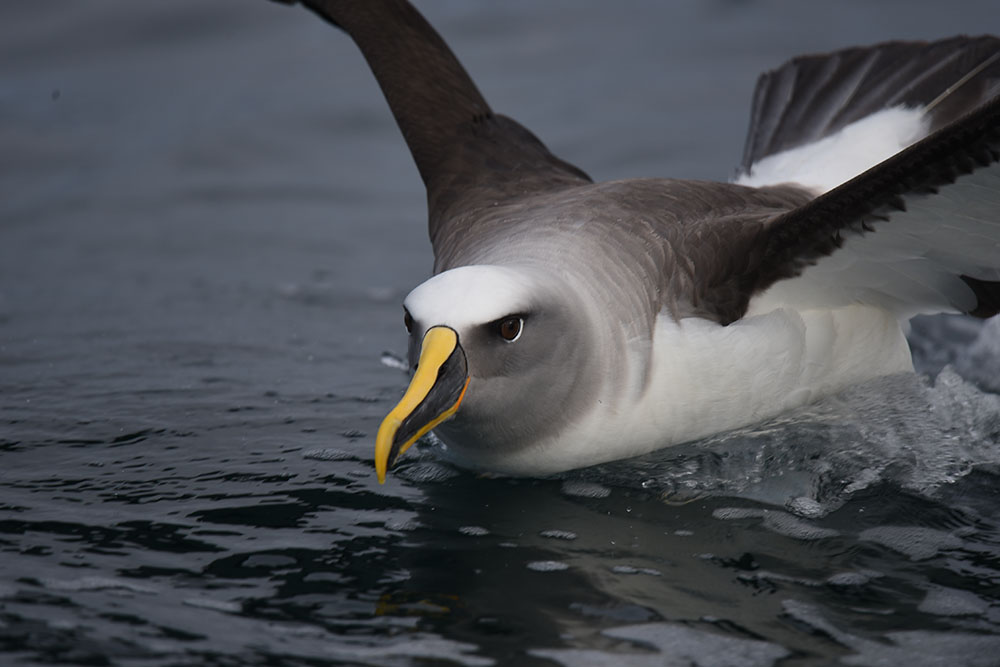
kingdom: Animalia
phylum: Chordata
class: Aves
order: Procellariiformes
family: Diomedeidae
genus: Thalassarche
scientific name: Thalassarche bulleri
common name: Buller's albatross
